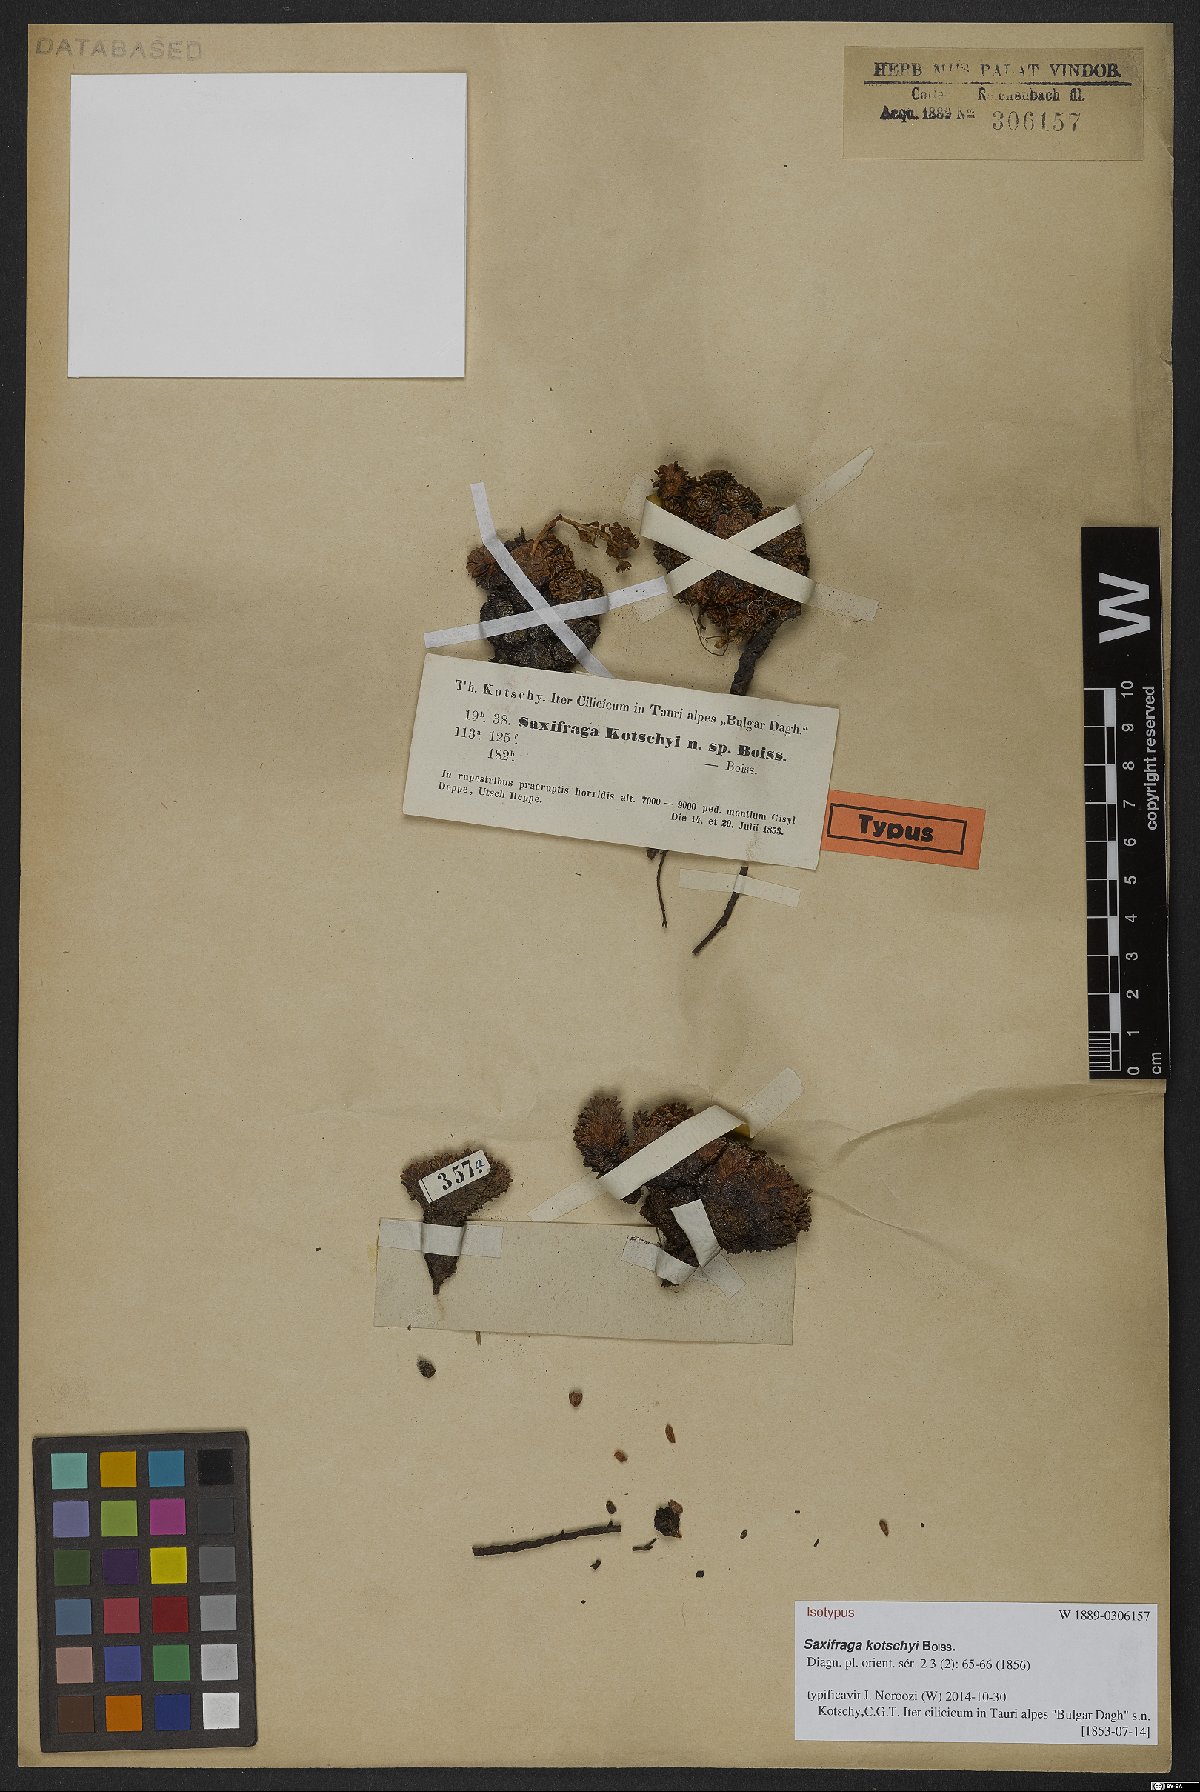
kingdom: Plantae
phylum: Tracheophyta
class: Magnoliopsida
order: Saxifragales
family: Saxifragaceae
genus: Saxifraga
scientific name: Saxifraga kotschyi
